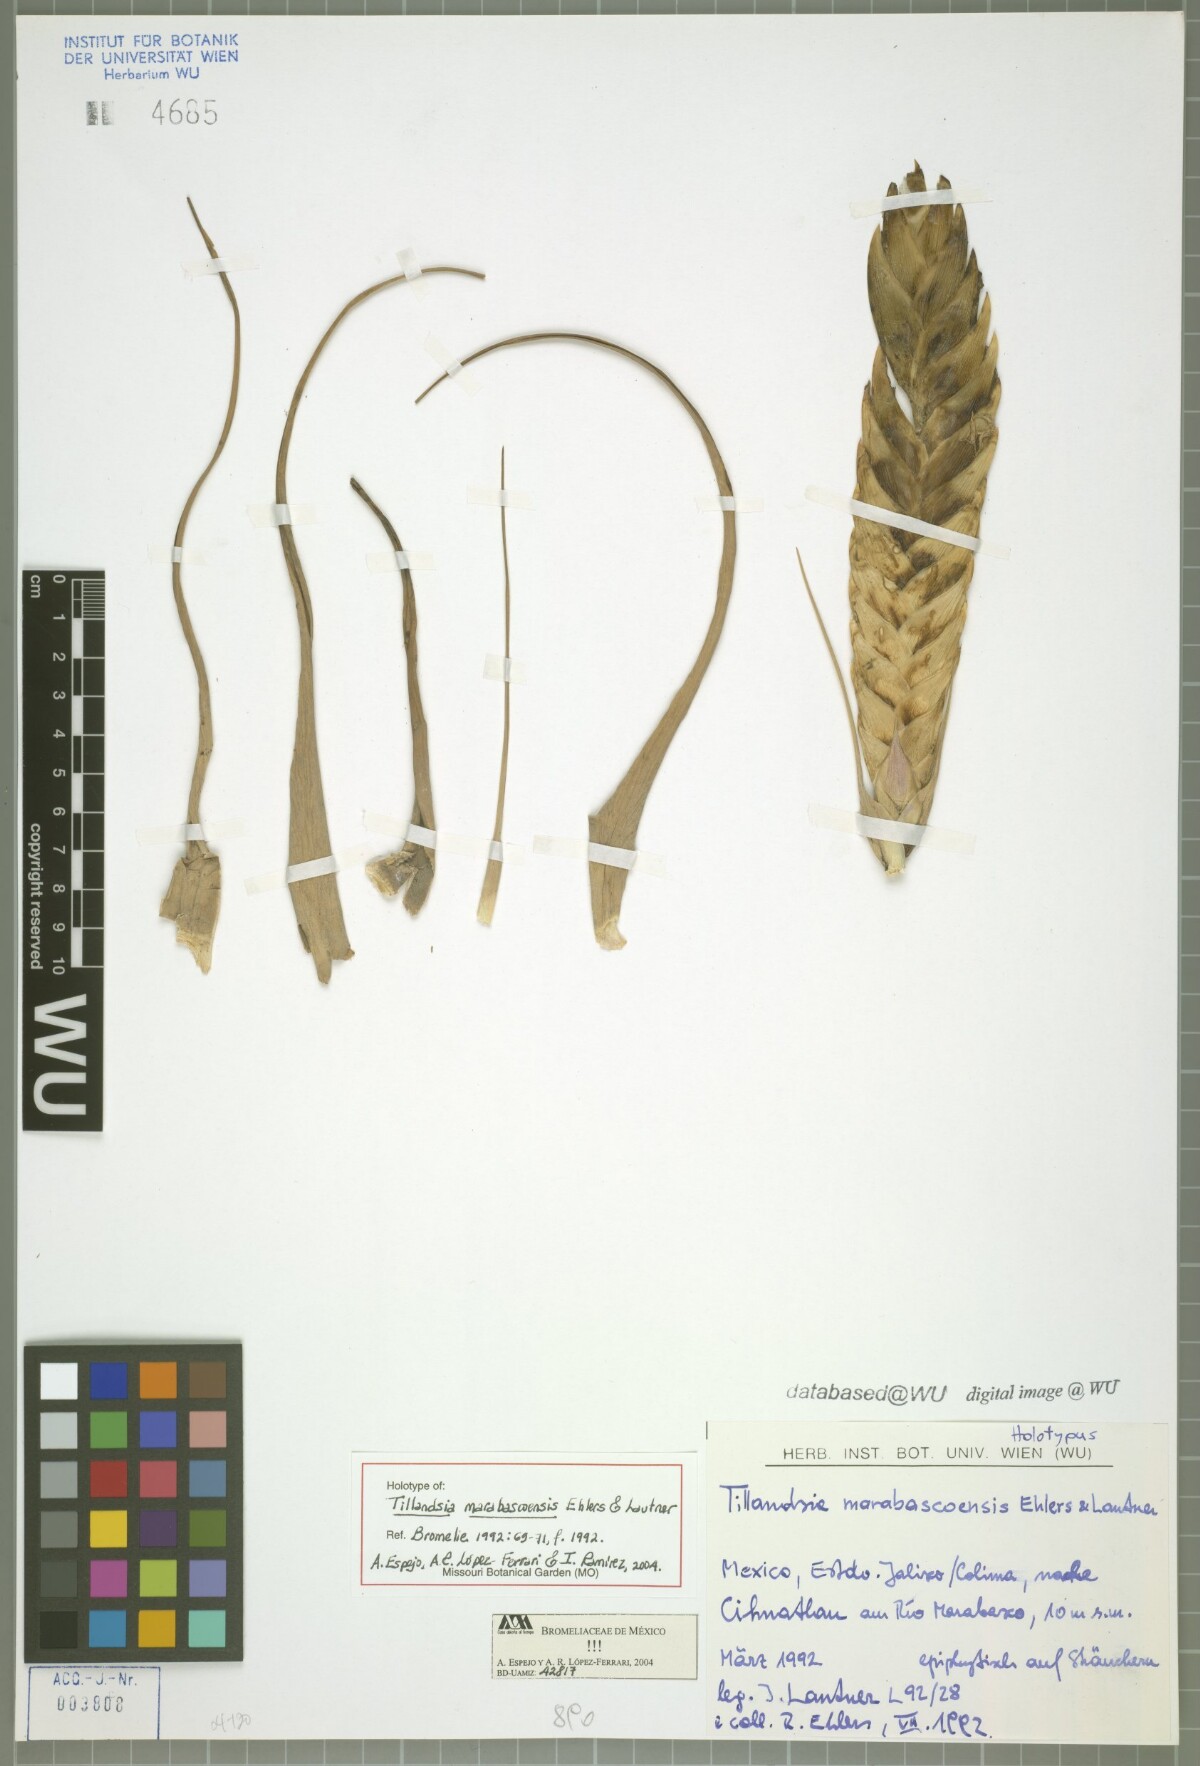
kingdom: Plantae
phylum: Tracheophyta
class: Liliopsida
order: Poales
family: Bromeliaceae
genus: Tillandsia
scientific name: Tillandsia marabascoensis
